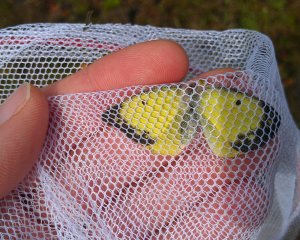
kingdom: Animalia
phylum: Arthropoda
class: Insecta
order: Lepidoptera
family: Pieridae
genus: Colias
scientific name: Colias philodice
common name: Clouded Sulphur
